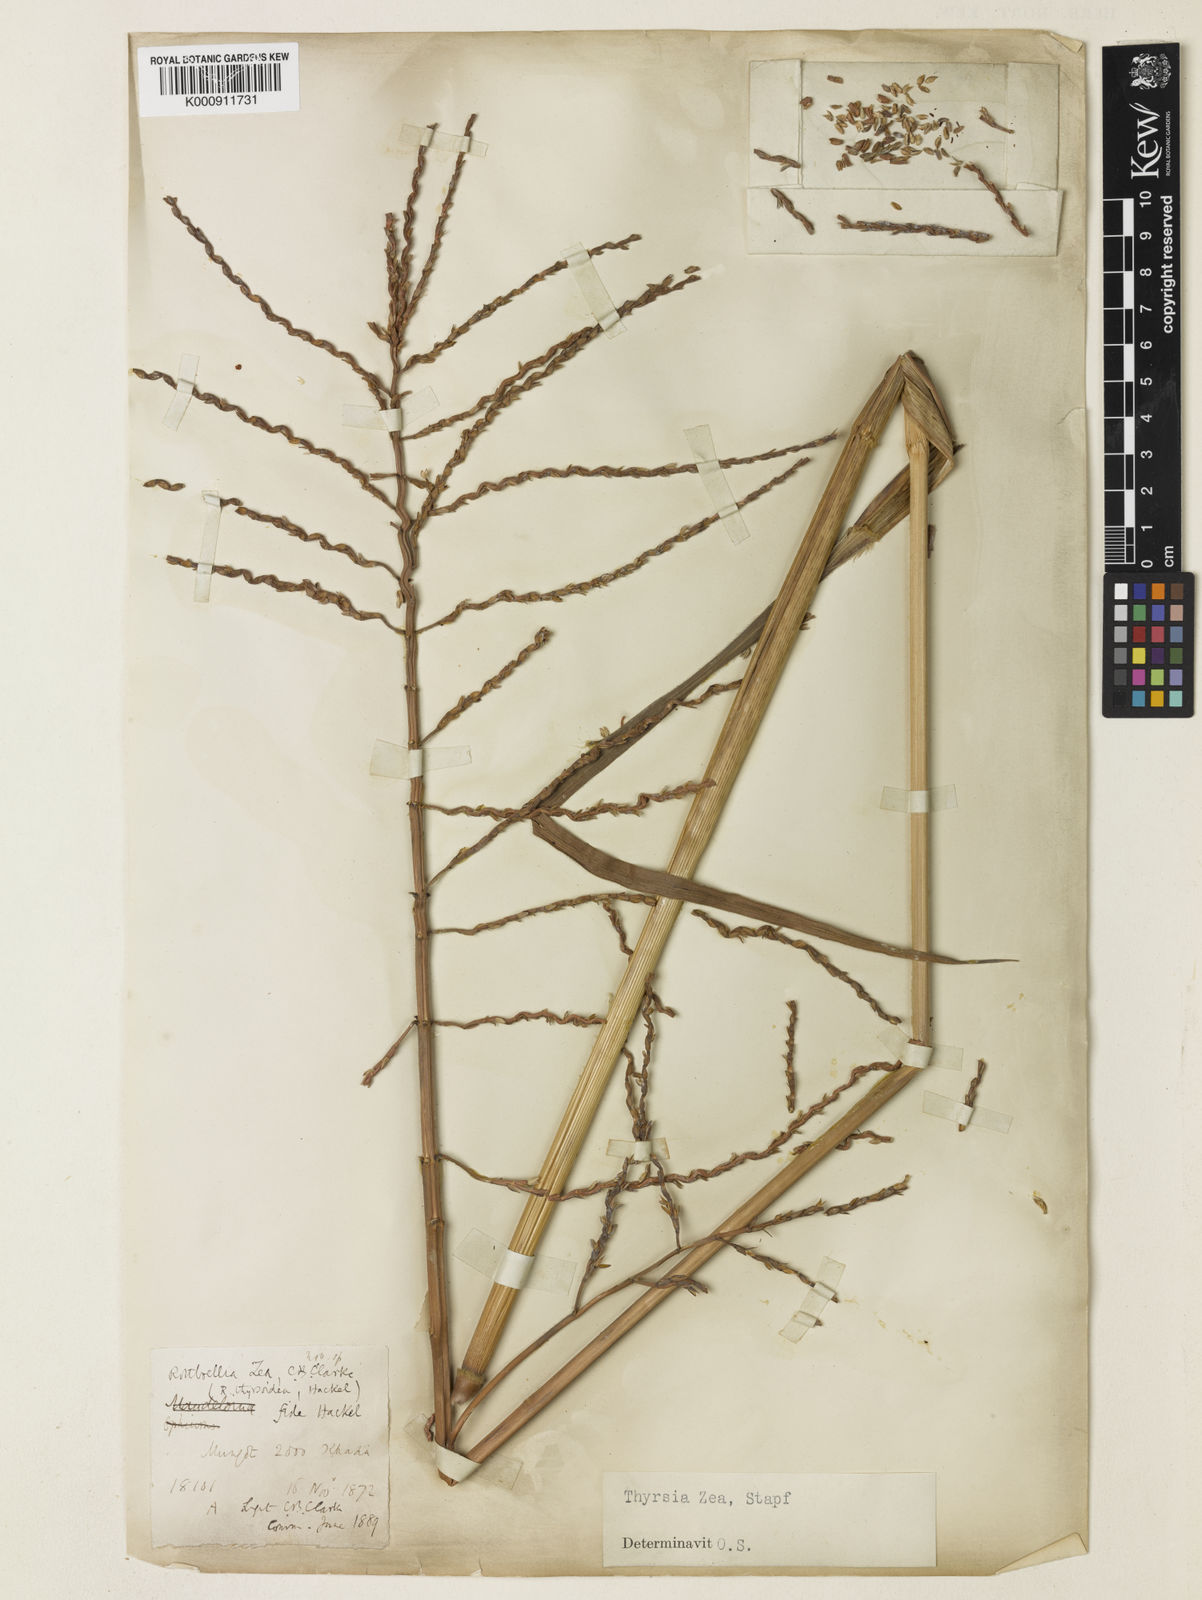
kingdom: Plantae
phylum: Tracheophyta
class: Liliopsida
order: Poales
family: Poaceae
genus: Thyrsia
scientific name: Thyrsia zea
